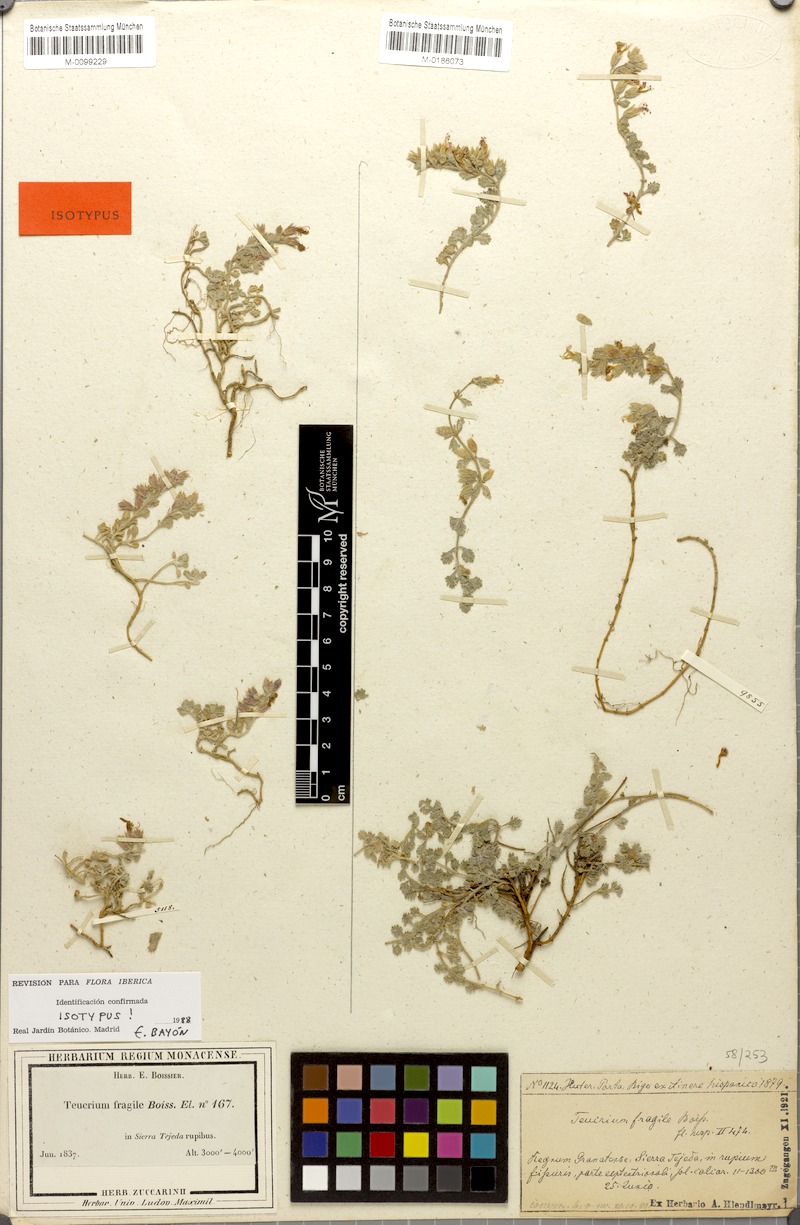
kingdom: Plantae
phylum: Tracheophyta
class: Magnoliopsida
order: Lamiales
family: Lamiaceae
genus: Teucrium
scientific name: Teucrium fragile
